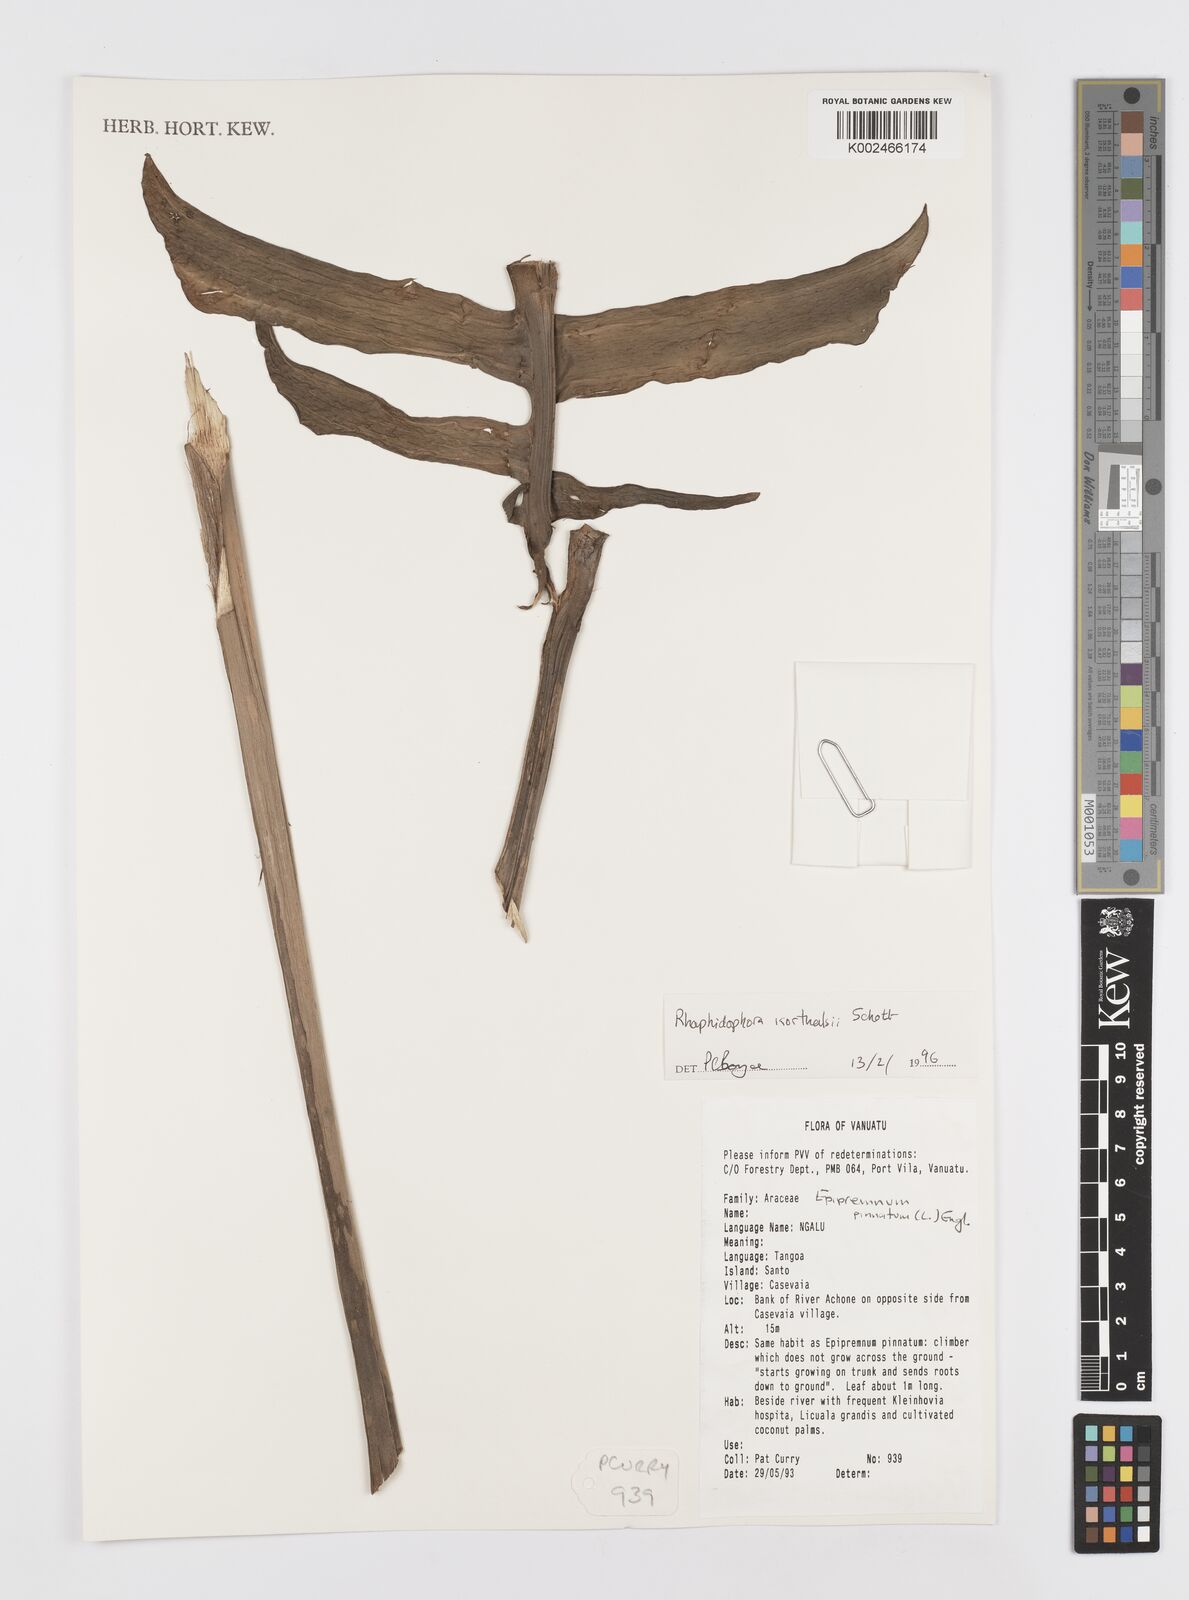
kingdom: Plantae
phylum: Tracheophyta
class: Liliopsida
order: Alismatales
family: Araceae
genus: Rhaphidophora
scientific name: Rhaphidophora korthalsii
